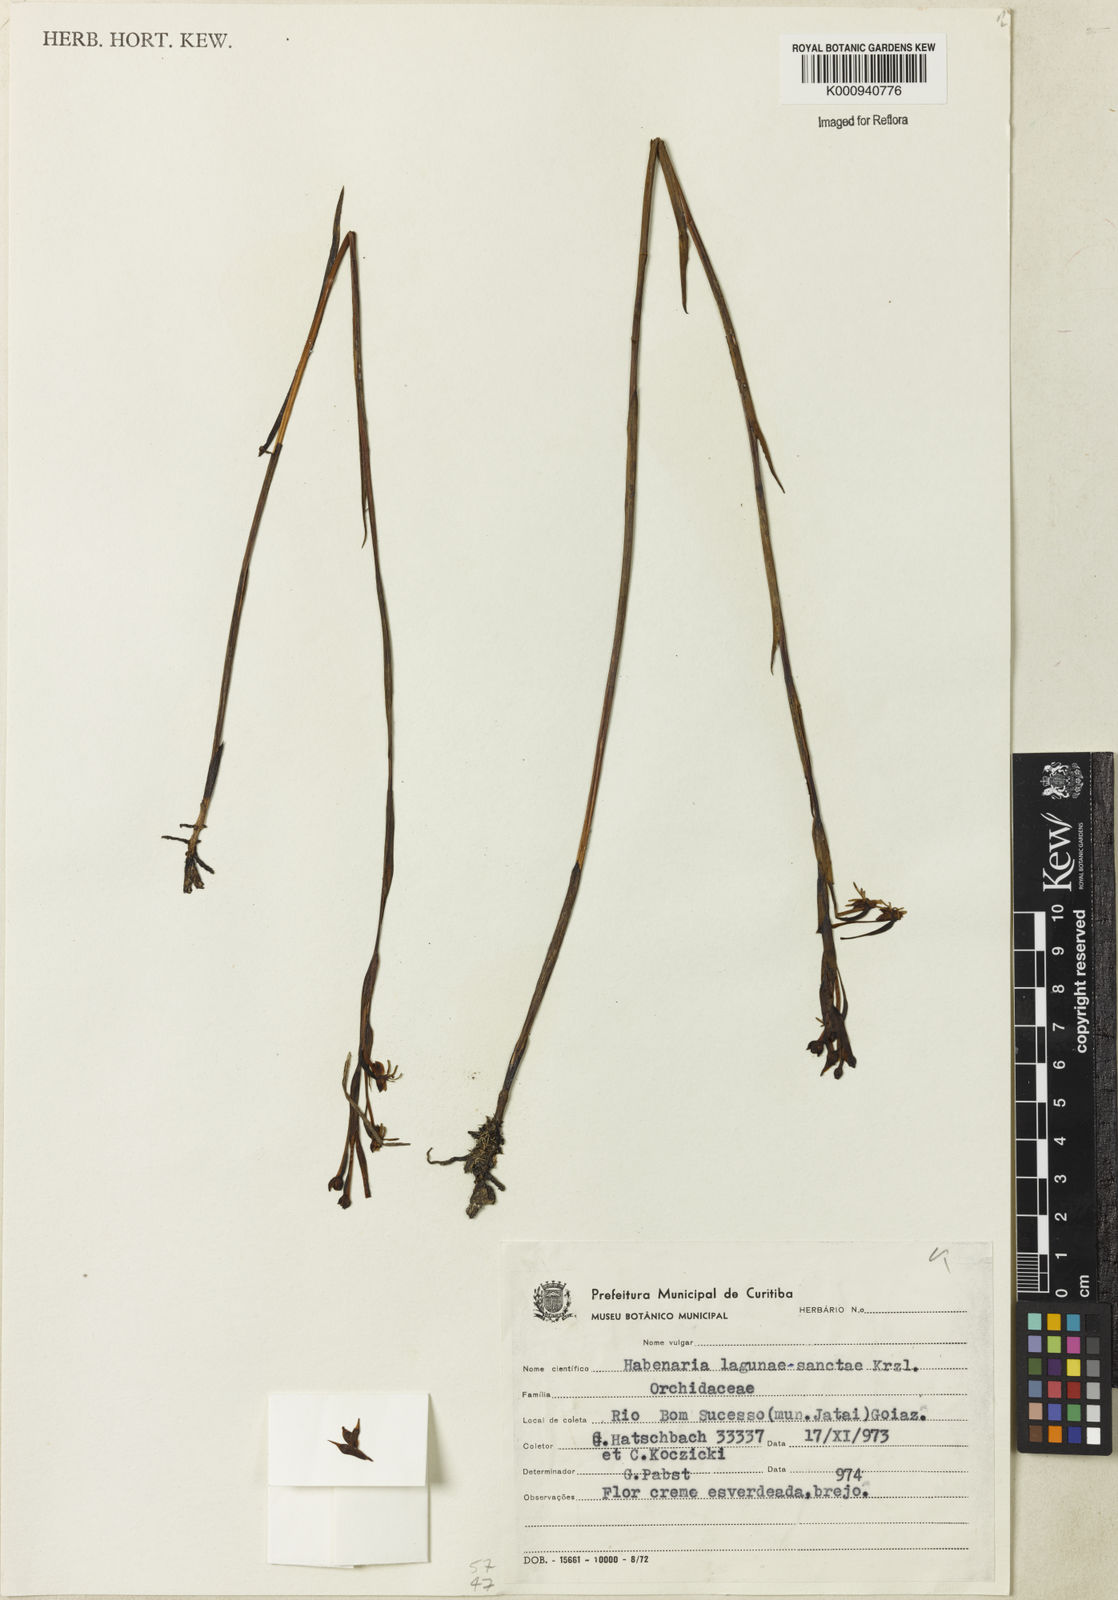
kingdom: Plantae
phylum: Tracheophyta
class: Liliopsida
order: Asparagales
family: Orchidaceae
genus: Habenaria
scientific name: Habenaria secundiflora
